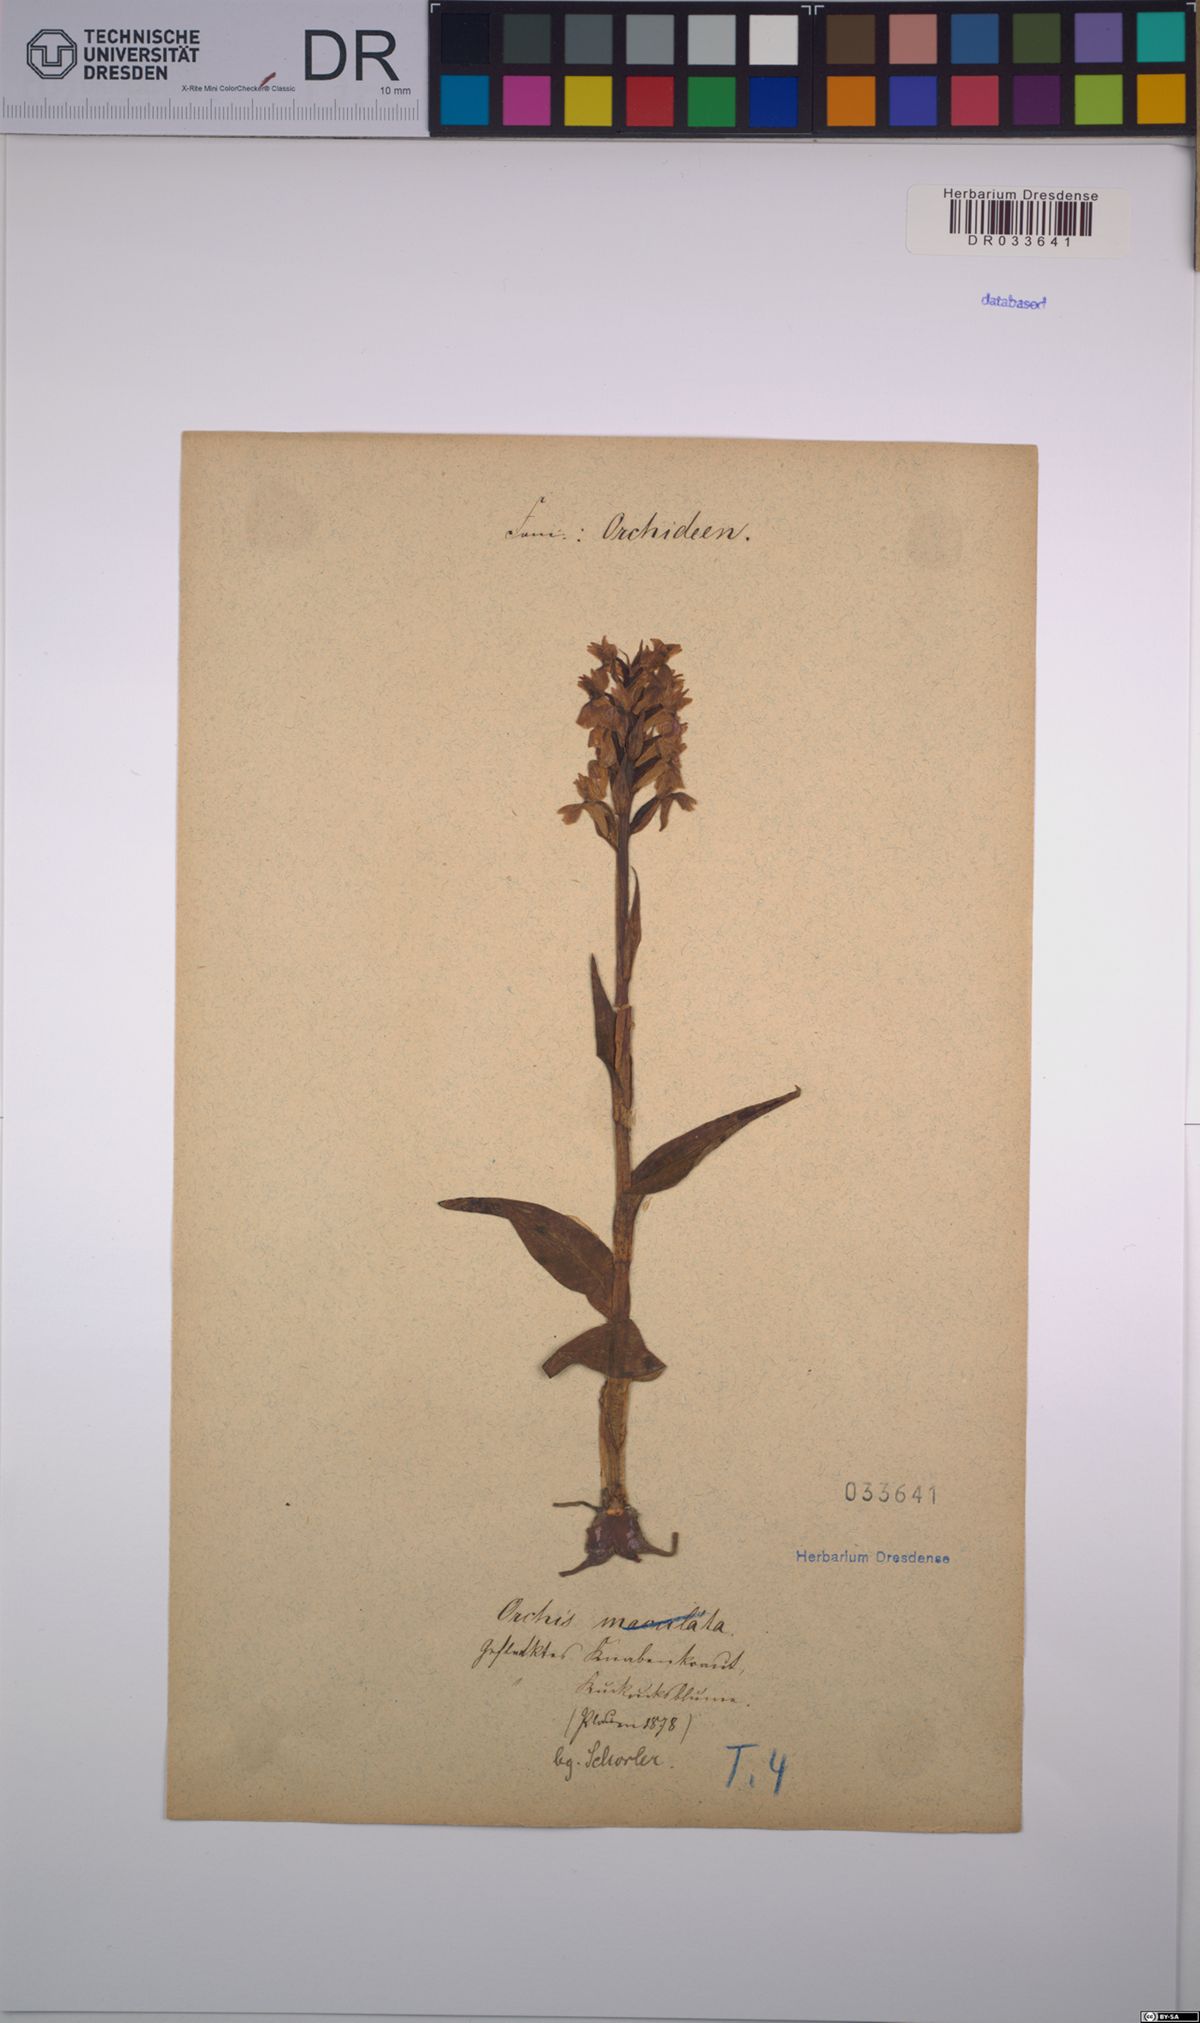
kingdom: Plantae
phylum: Tracheophyta
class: Liliopsida
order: Asparagales
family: Orchidaceae
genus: Dactylorhiza
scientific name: Dactylorhiza majalis
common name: Marsh orchid
